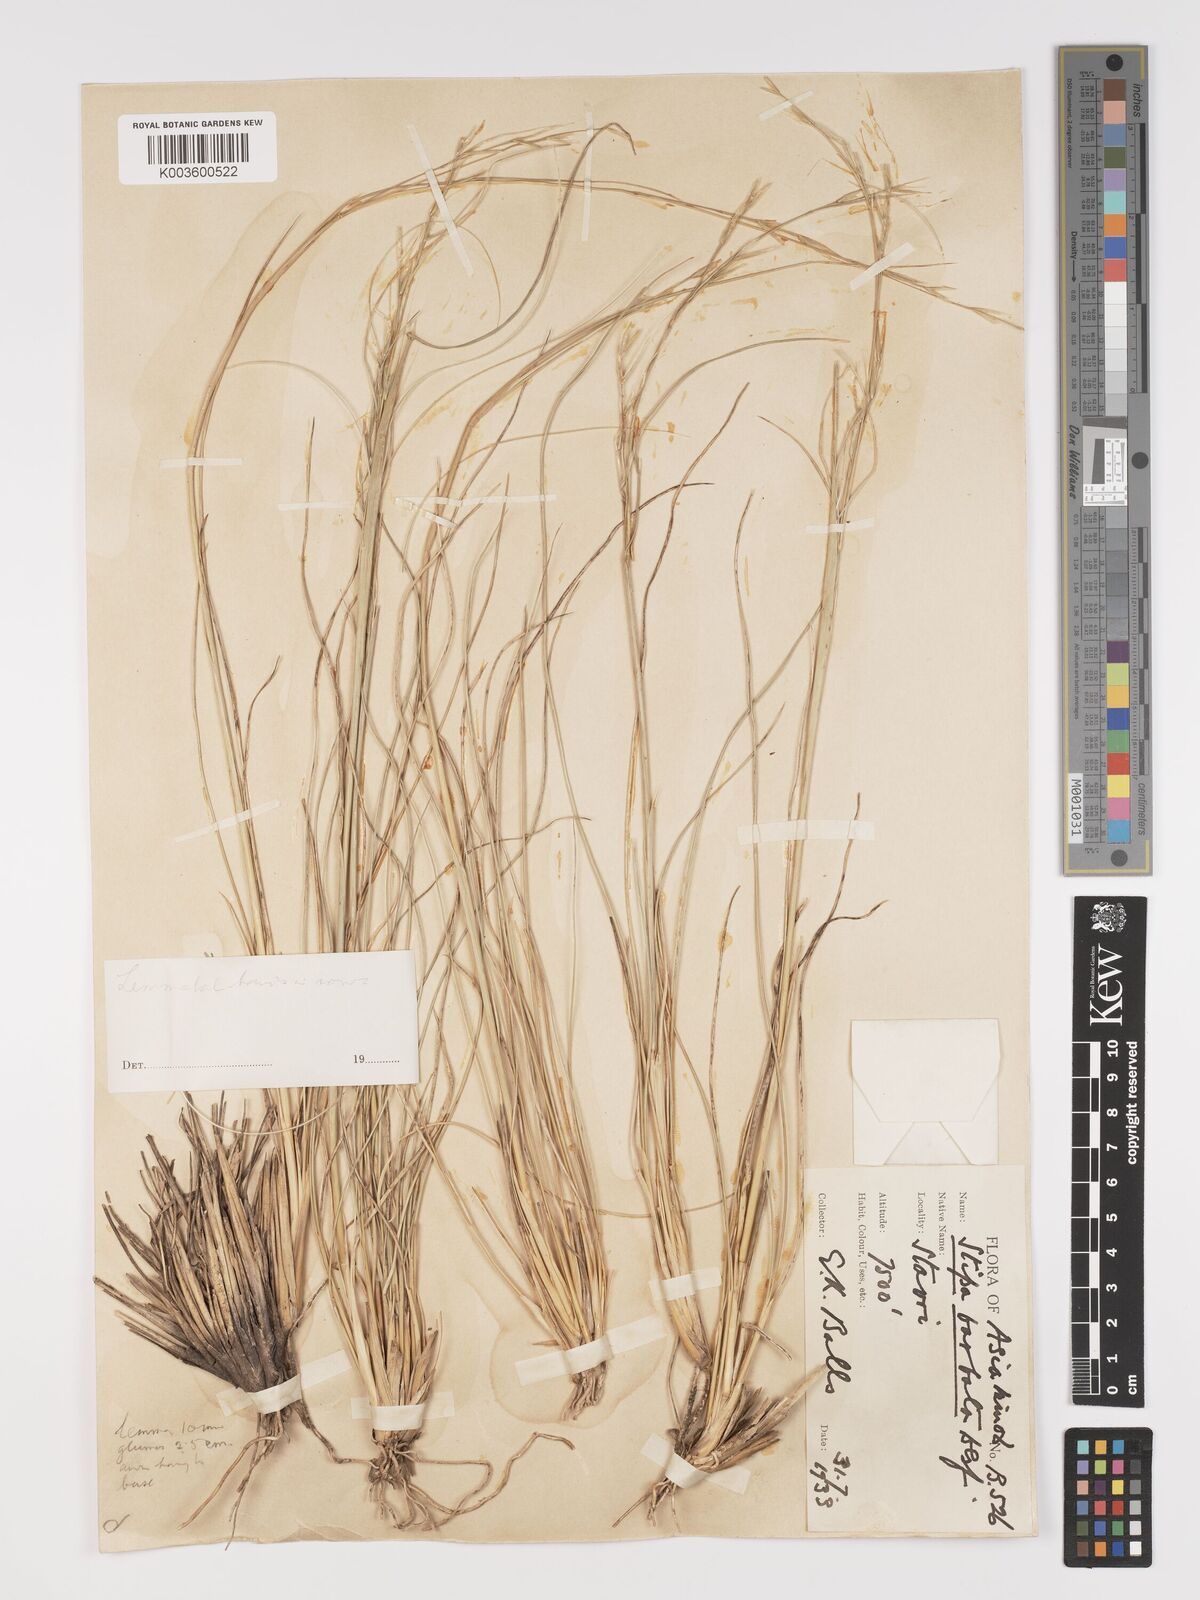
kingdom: Plantae
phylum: Tracheophyta
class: Liliopsida
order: Poales
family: Poaceae
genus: Stipa
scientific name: Stipa barbata
